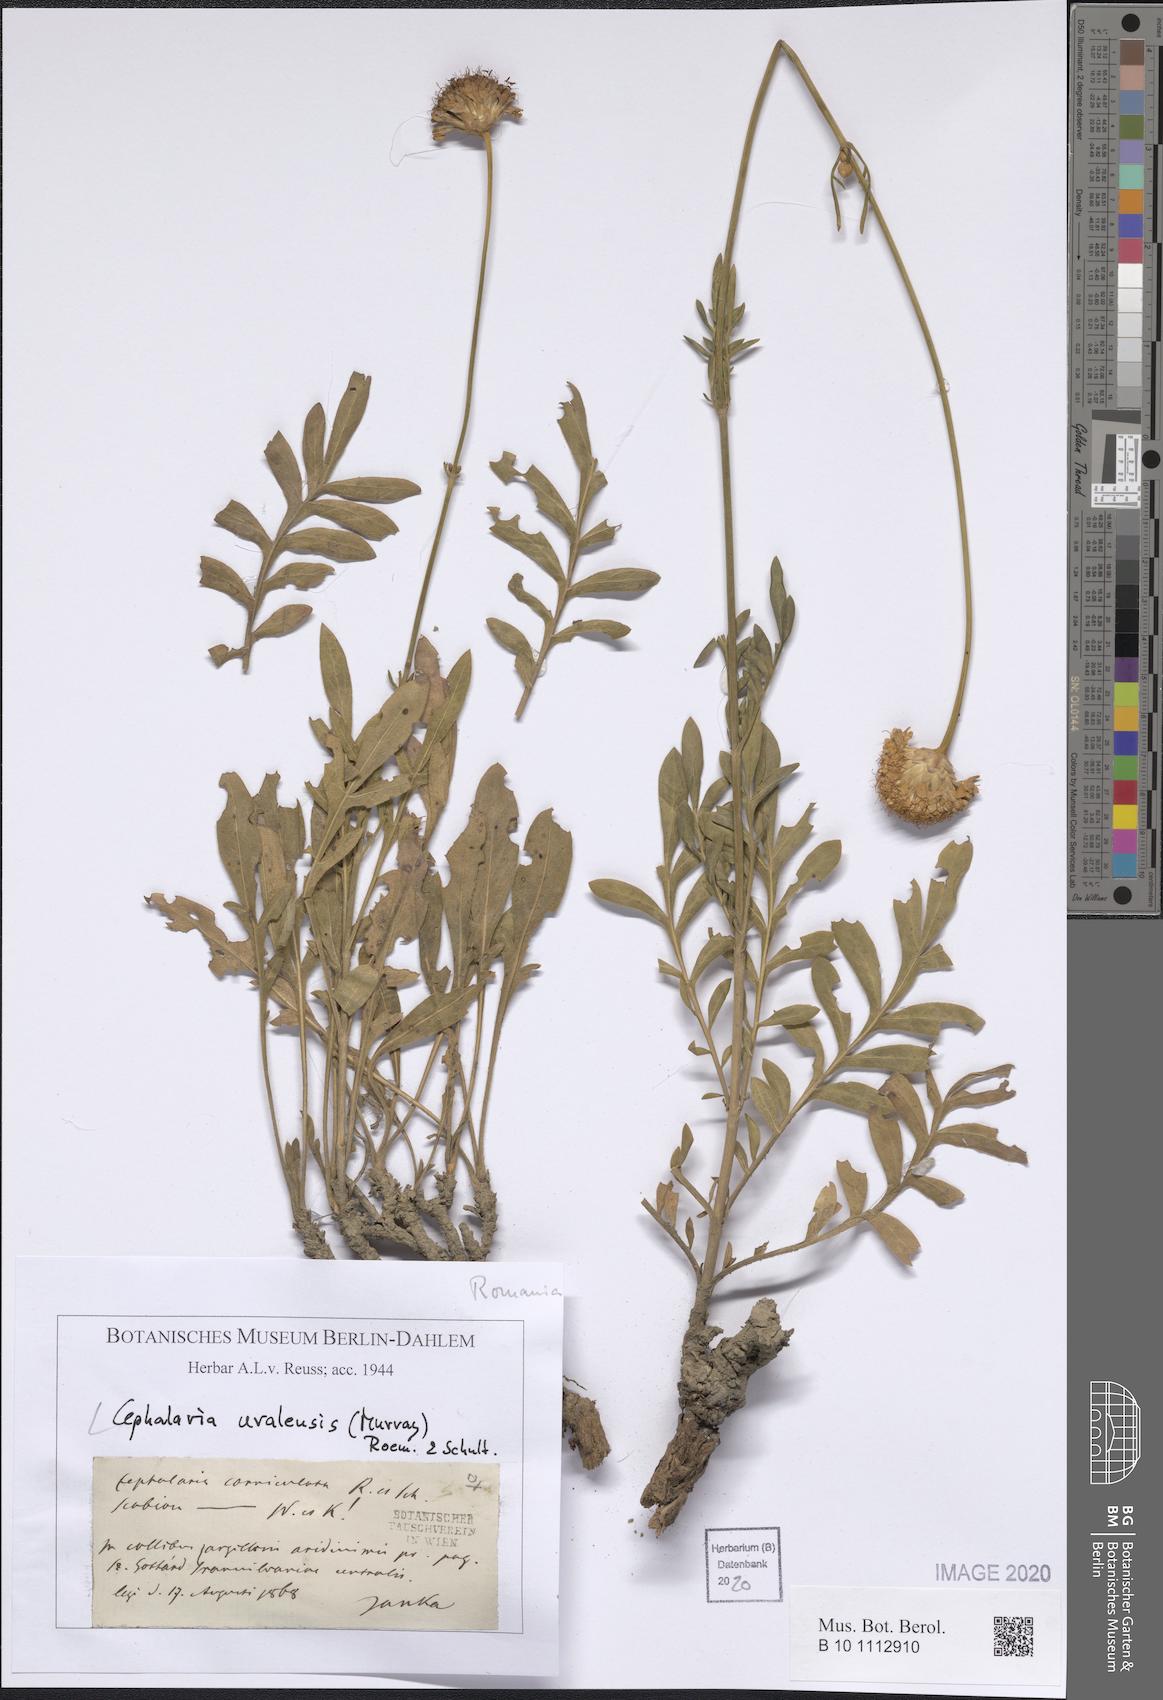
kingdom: Plantae
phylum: Tracheophyta
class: Magnoliopsida
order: Dipsacales
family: Caprifoliaceae
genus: Cephalaria
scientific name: Cephalaria uralensis
